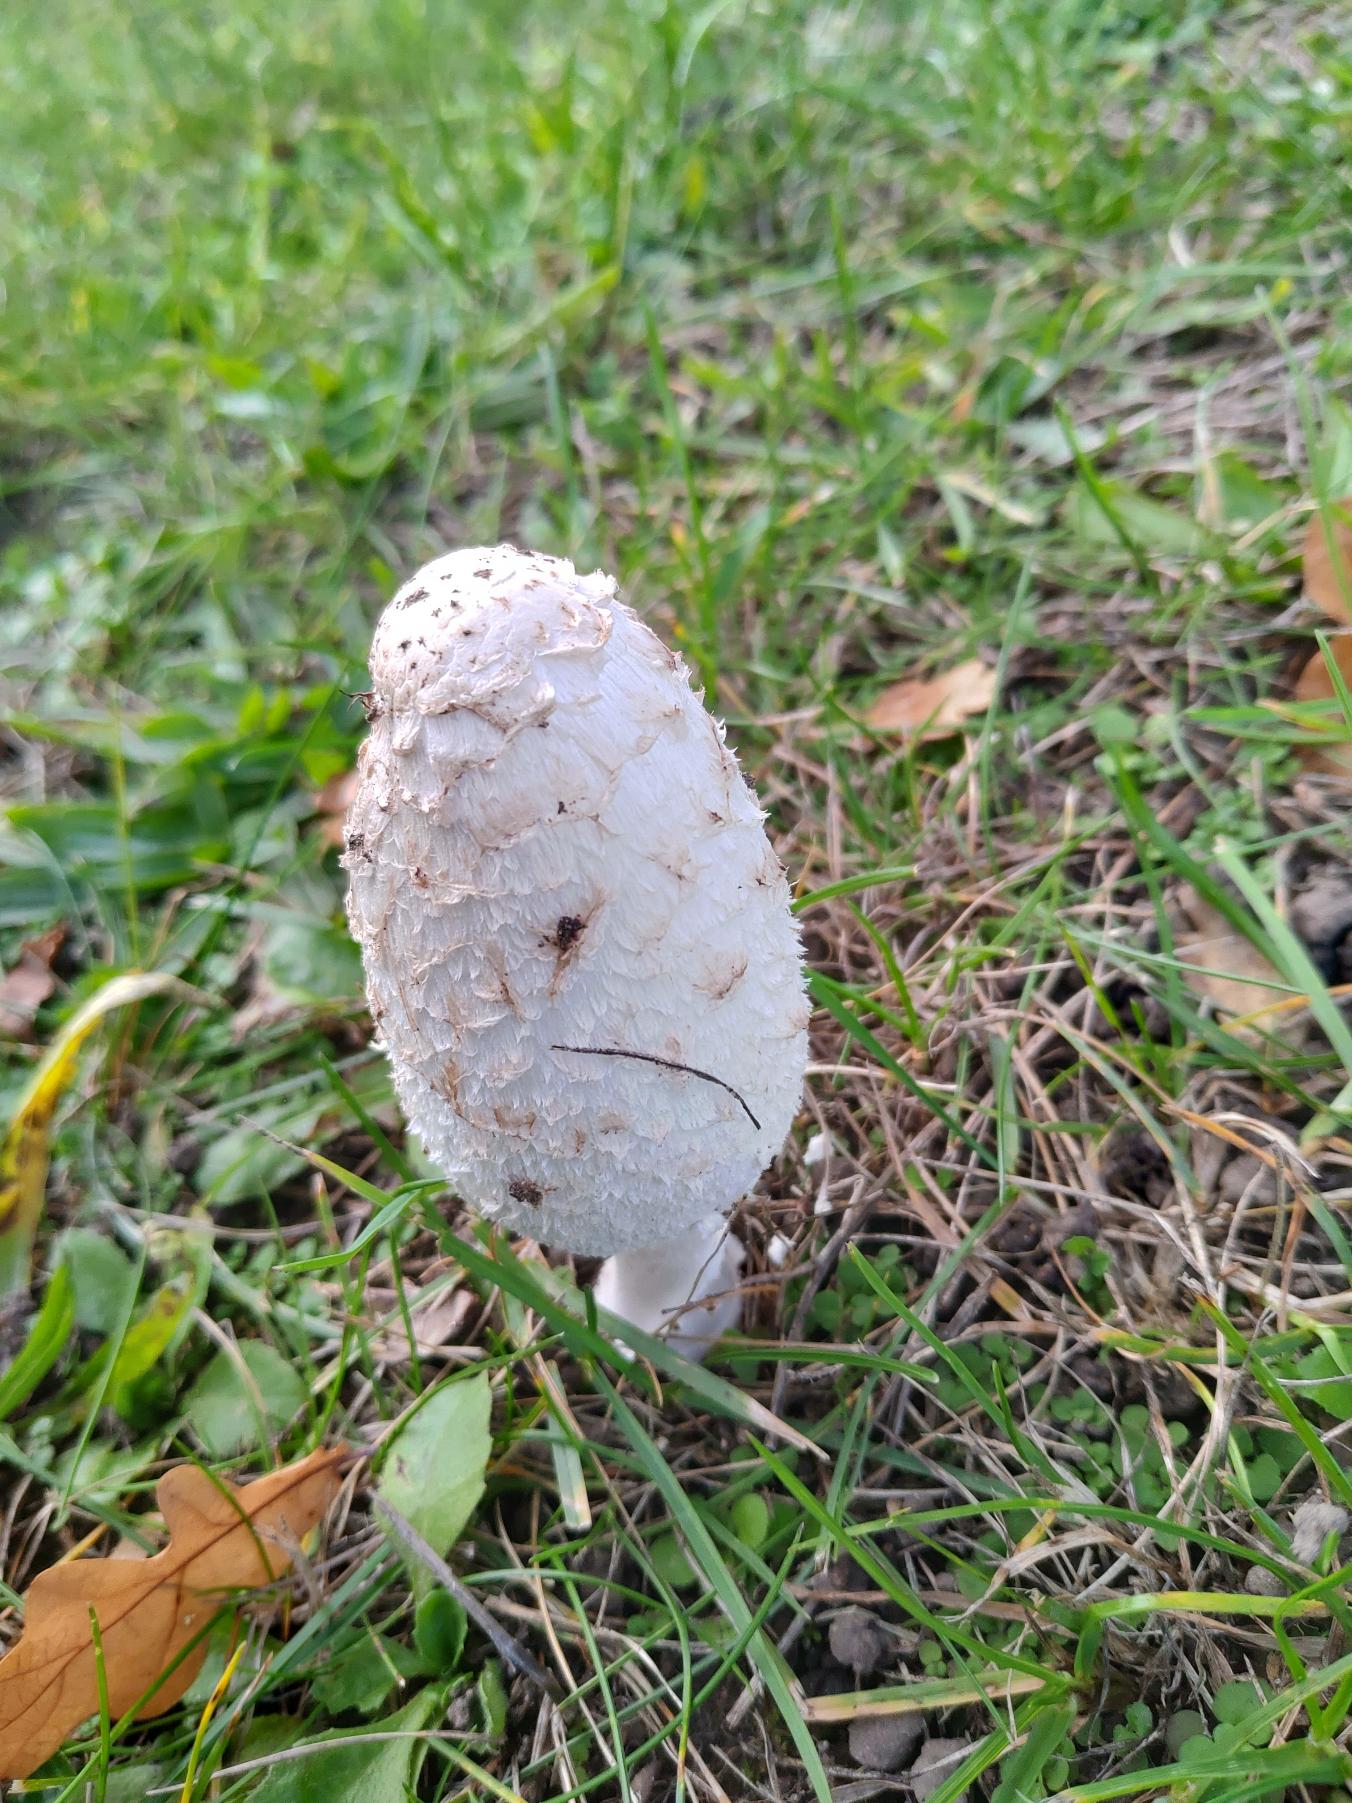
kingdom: Fungi
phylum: Basidiomycota
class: Agaricomycetes
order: Agaricales
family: Agaricaceae
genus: Coprinus
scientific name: Coprinus comatus
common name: Stor parykhat
